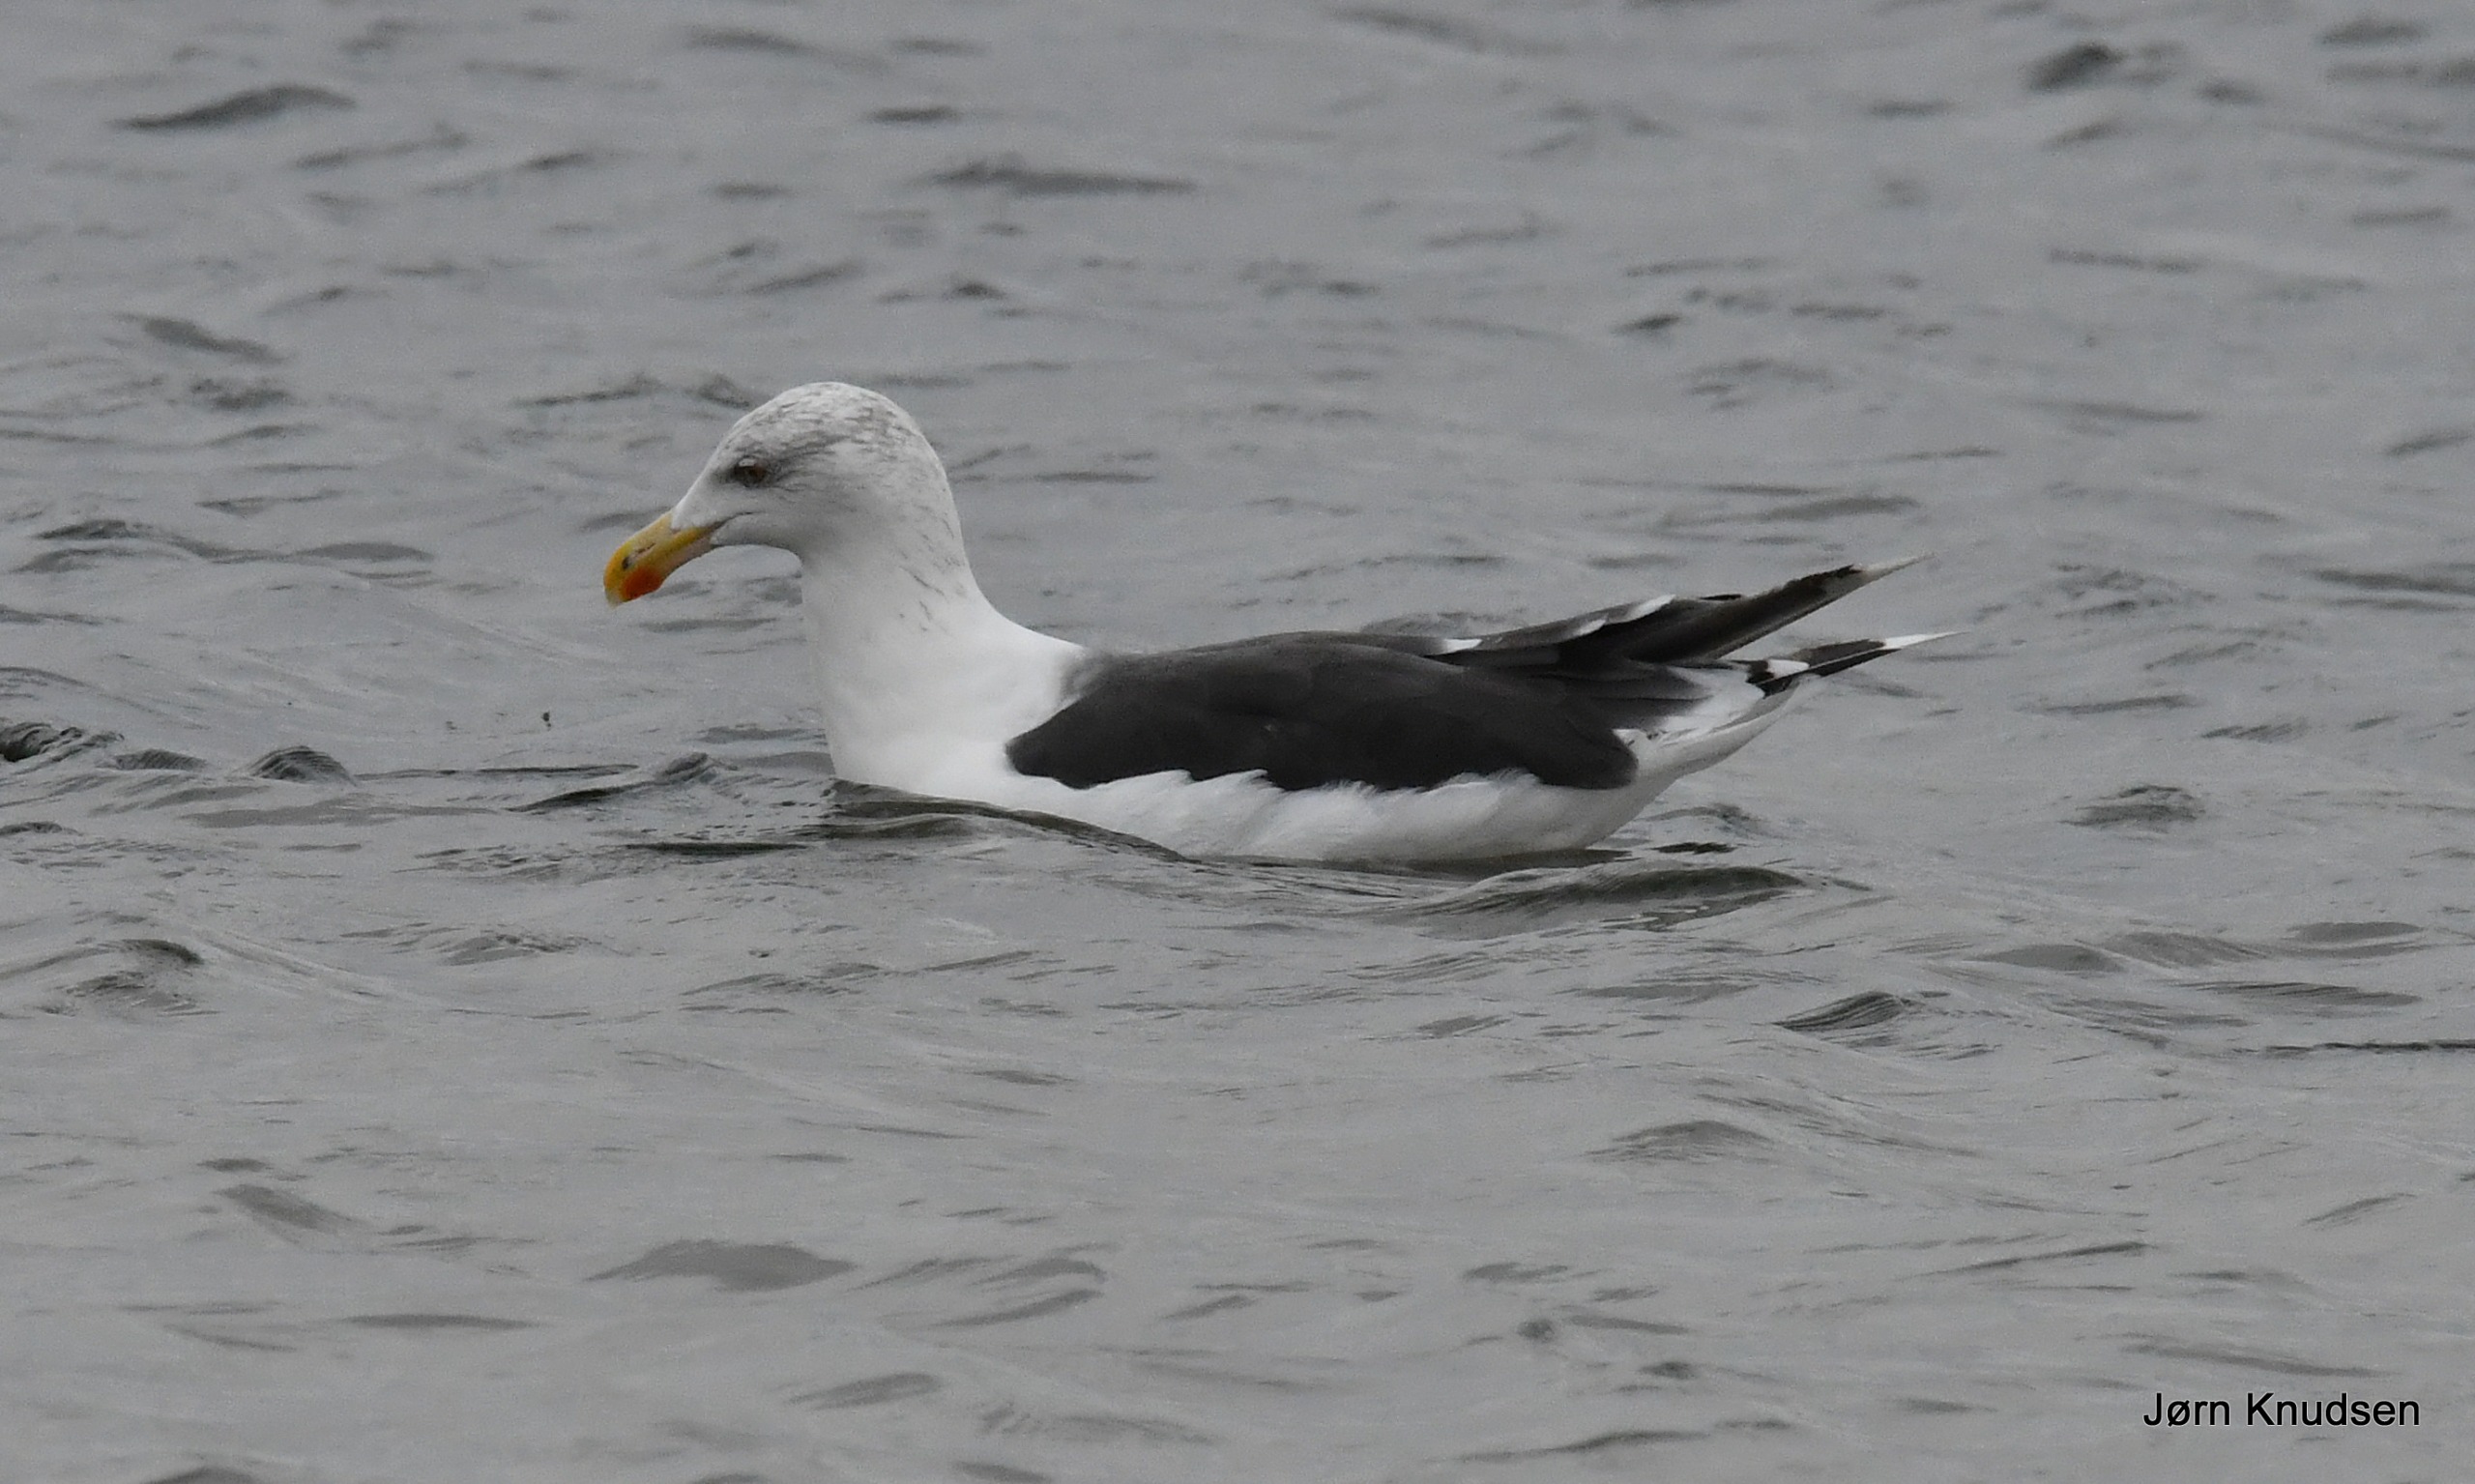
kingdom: Animalia
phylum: Chordata
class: Aves
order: Charadriiformes
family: Laridae
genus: Larus
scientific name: Larus marinus
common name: Svartbag
